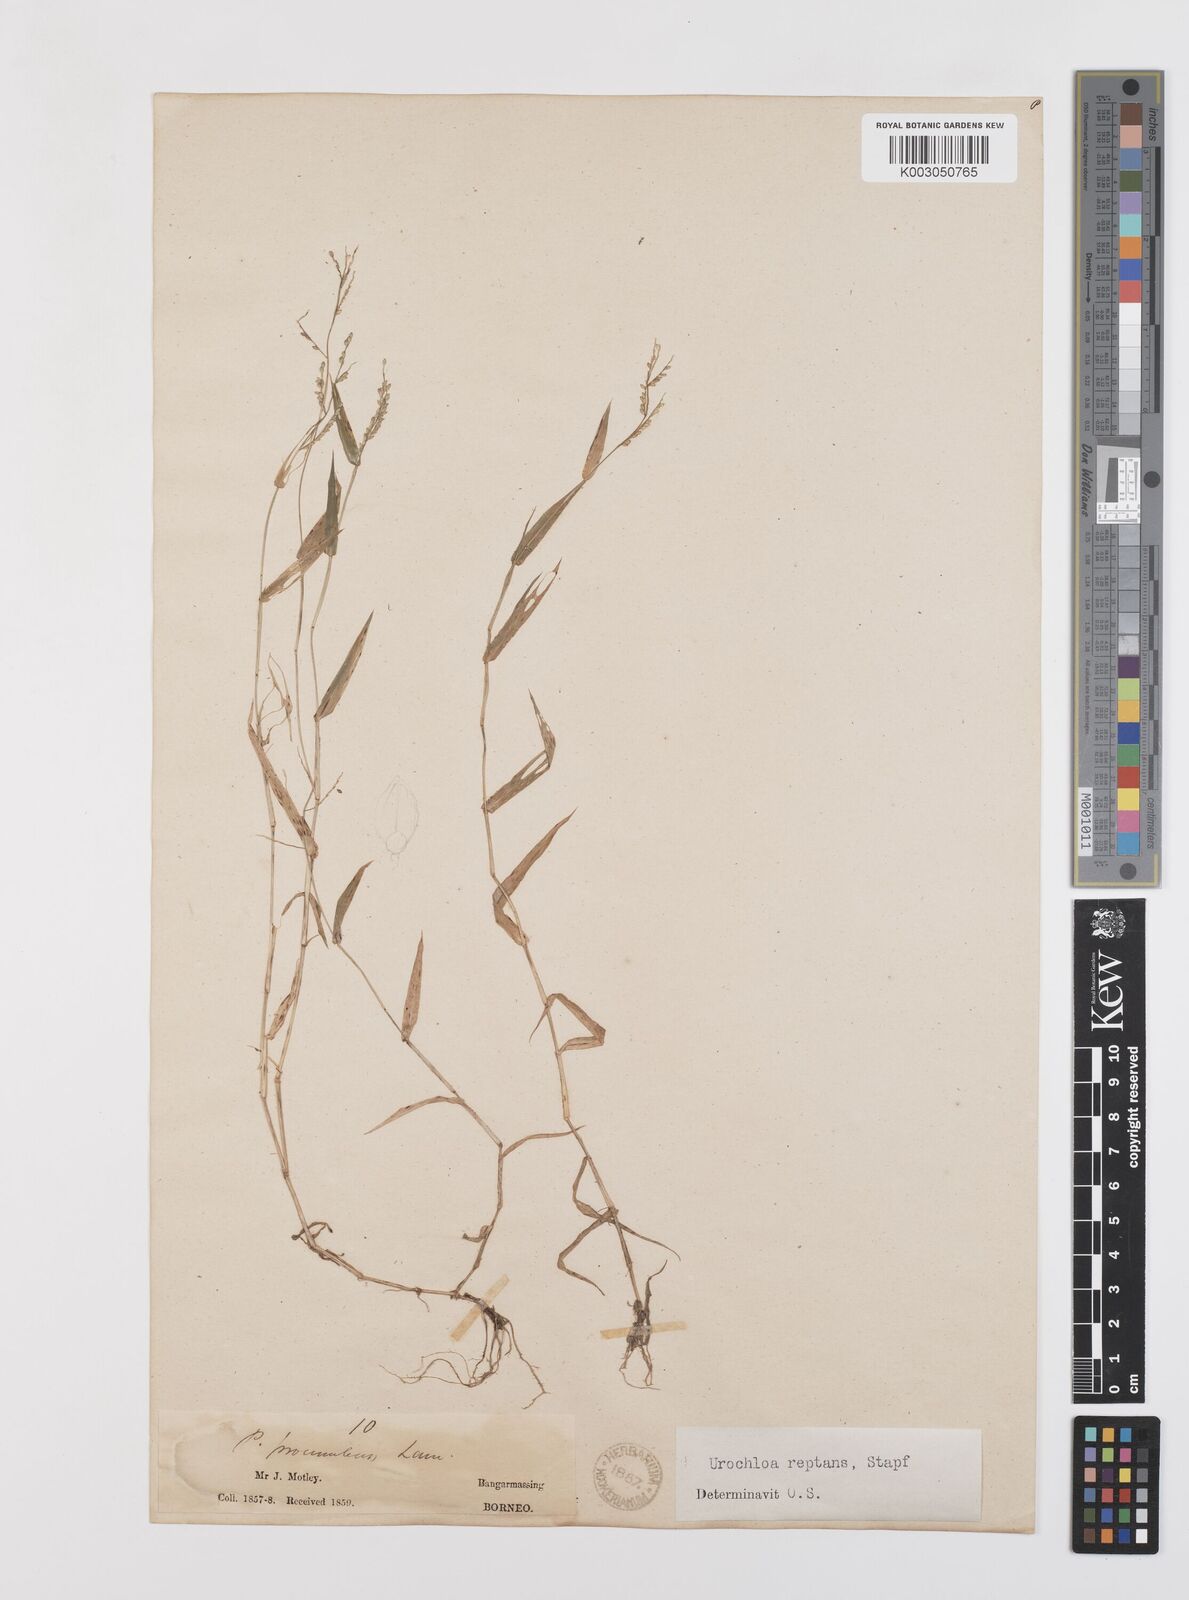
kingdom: Plantae
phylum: Tracheophyta
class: Liliopsida
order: Poales
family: Poaceae
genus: Urochloa
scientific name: Urochloa reptans
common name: Sprawling signalgrass
